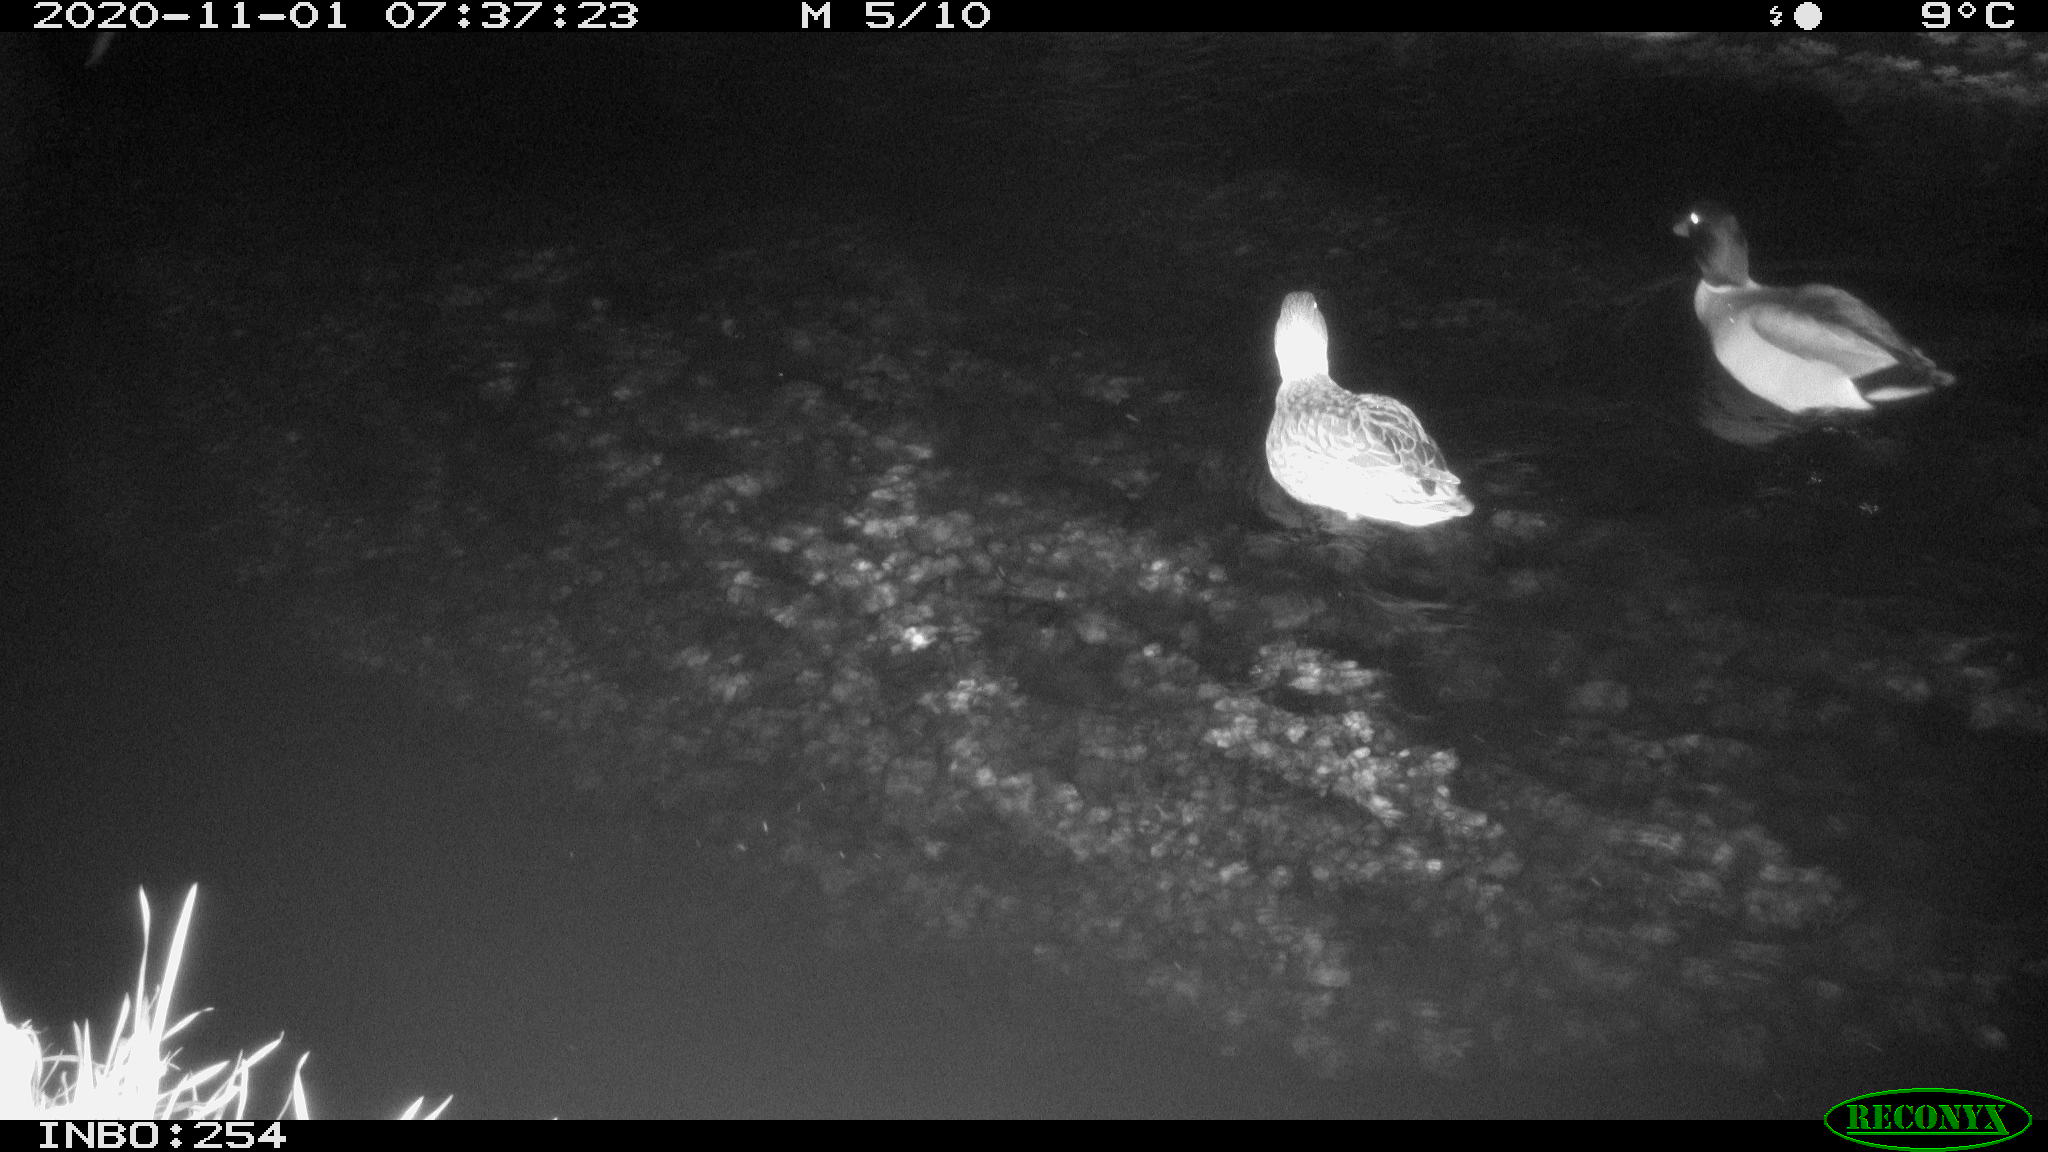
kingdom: Animalia
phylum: Chordata
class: Aves
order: Anseriformes
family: Anatidae
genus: Anas
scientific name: Anas platyrhynchos
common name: Mallard
